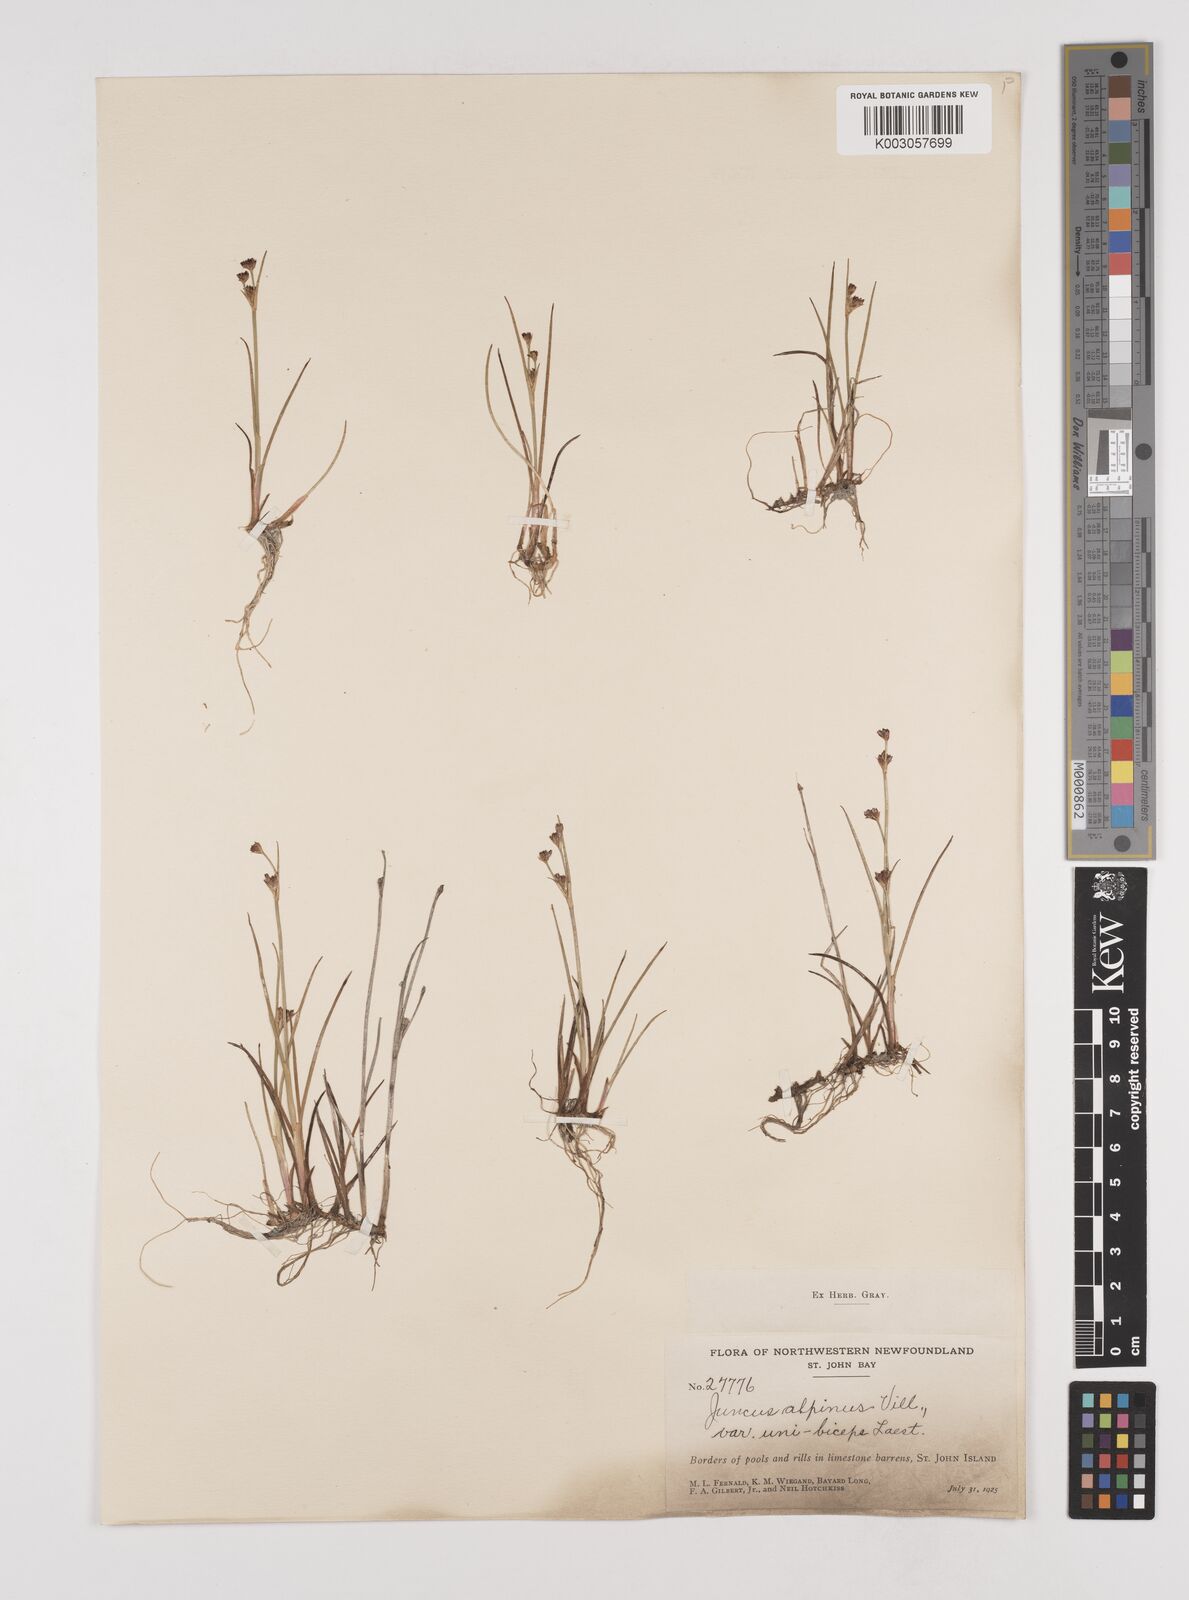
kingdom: Plantae
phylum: Tracheophyta
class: Liliopsida
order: Poales
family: Juncaceae
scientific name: Juncaceae
